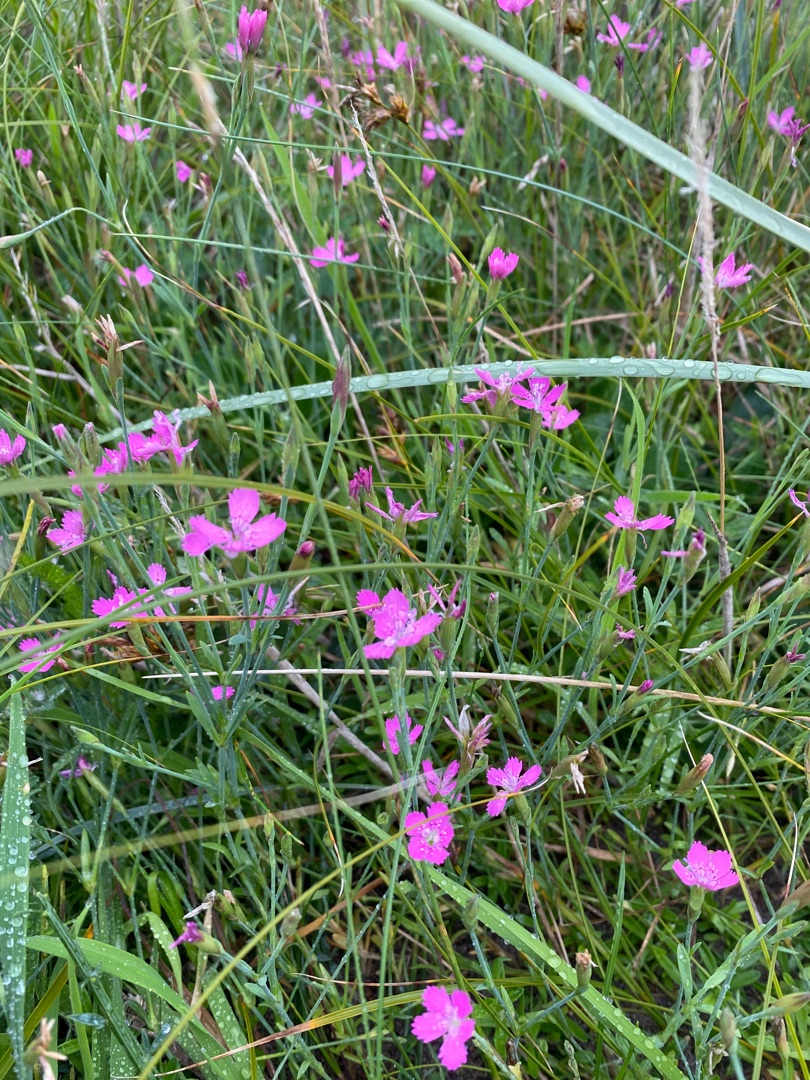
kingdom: Plantae
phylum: Tracheophyta
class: Magnoliopsida
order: Caryophyllales
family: Caryophyllaceae
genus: Dianthus
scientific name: Dianthus deltoides
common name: Bakke-nellike
